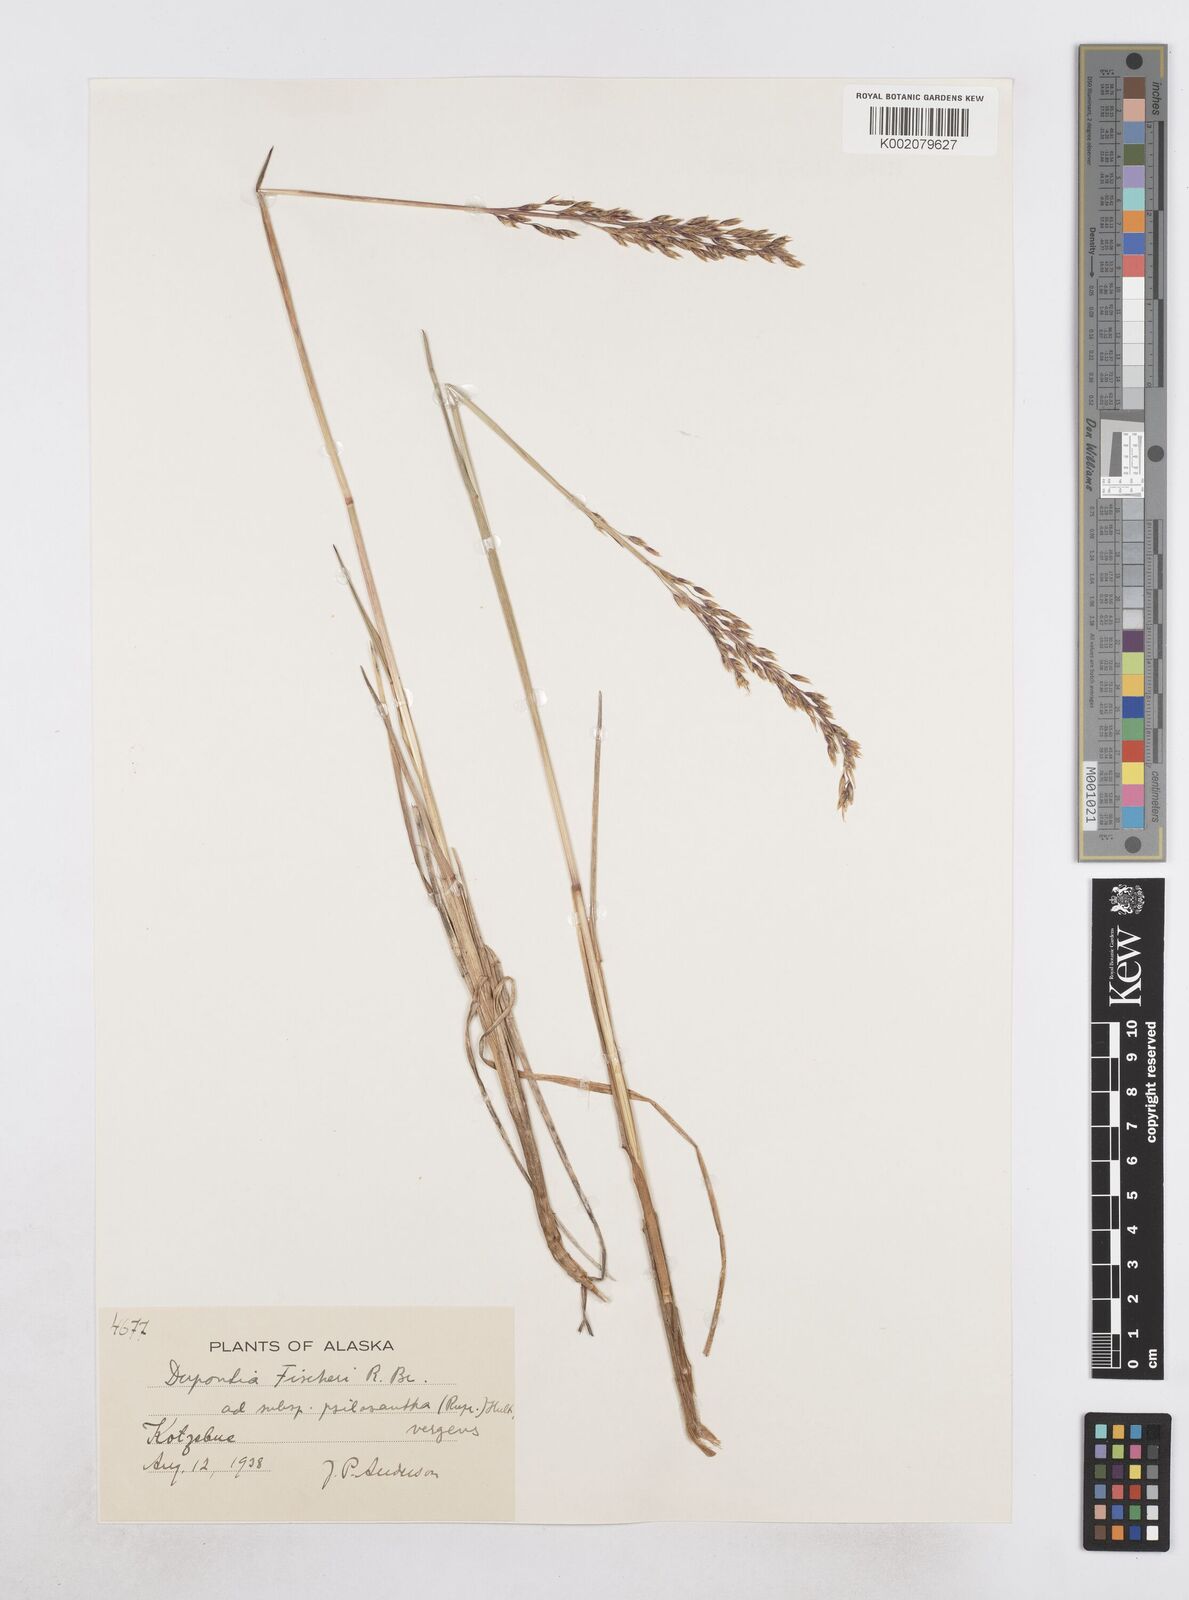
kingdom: Plantae
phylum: Tracheophyta
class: Liliopsida
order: Poales
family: Poaceae
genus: Dupontia
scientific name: Dupontia fisheri
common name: Tundra grass
